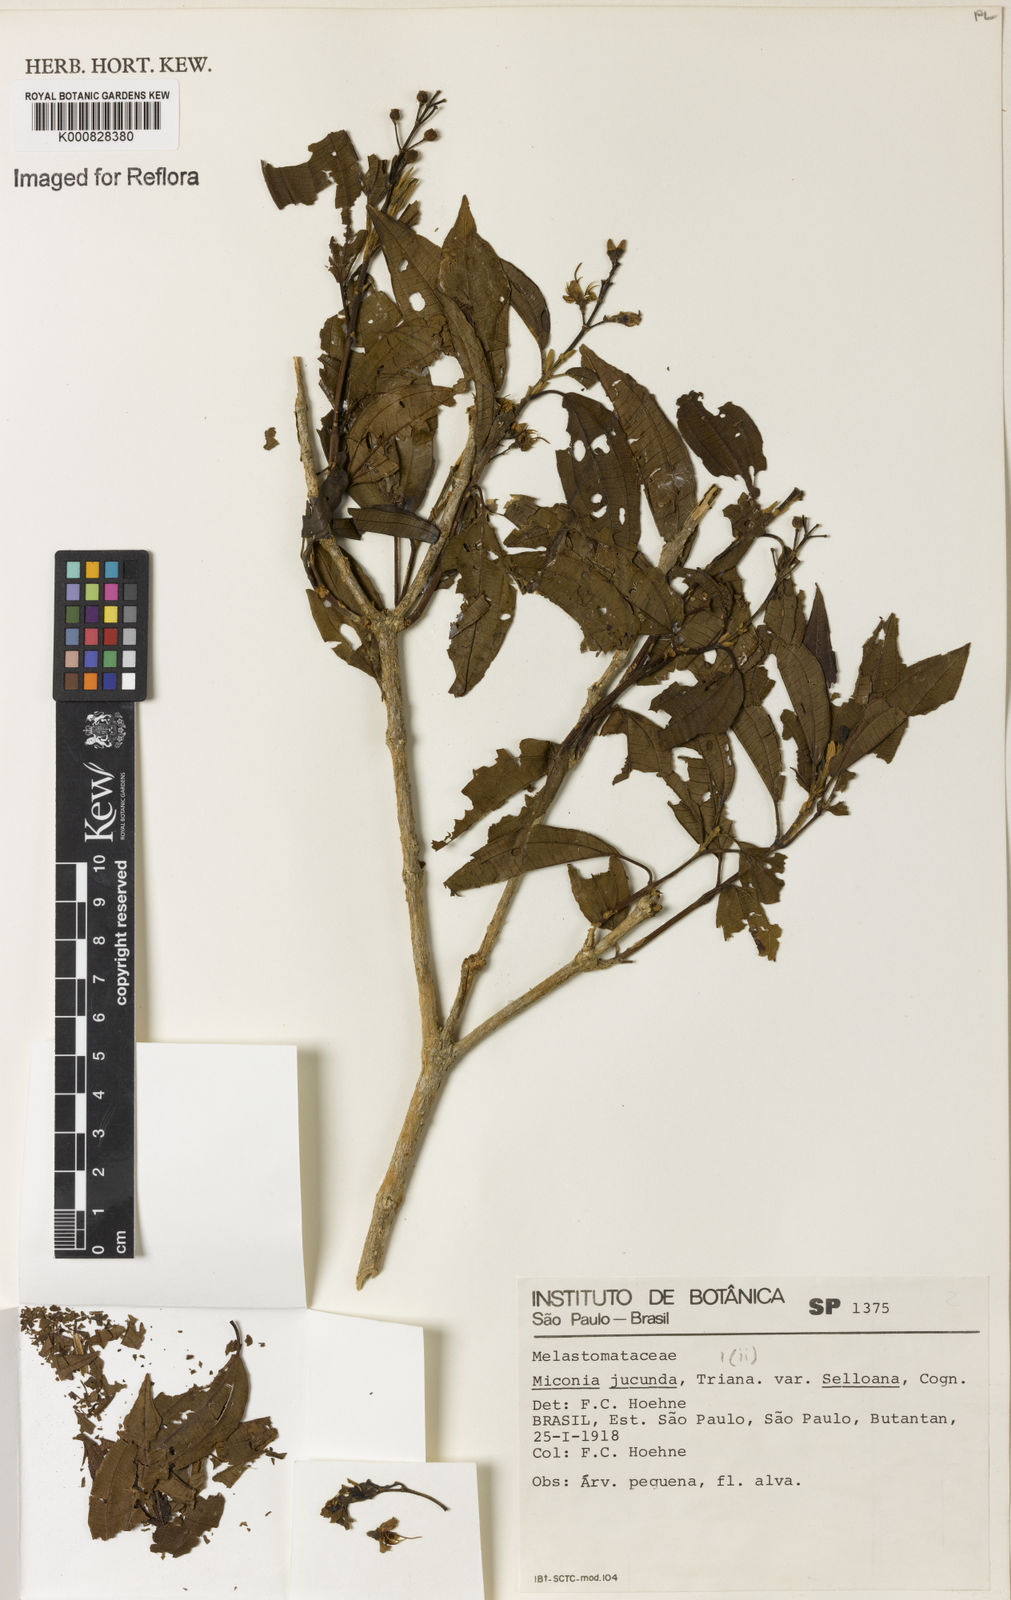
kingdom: Plantae
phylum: Tracheophyta
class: Magnoliopsida
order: Myrtales
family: Melastomataceae
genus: Miconia
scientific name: Miconia jucunda
